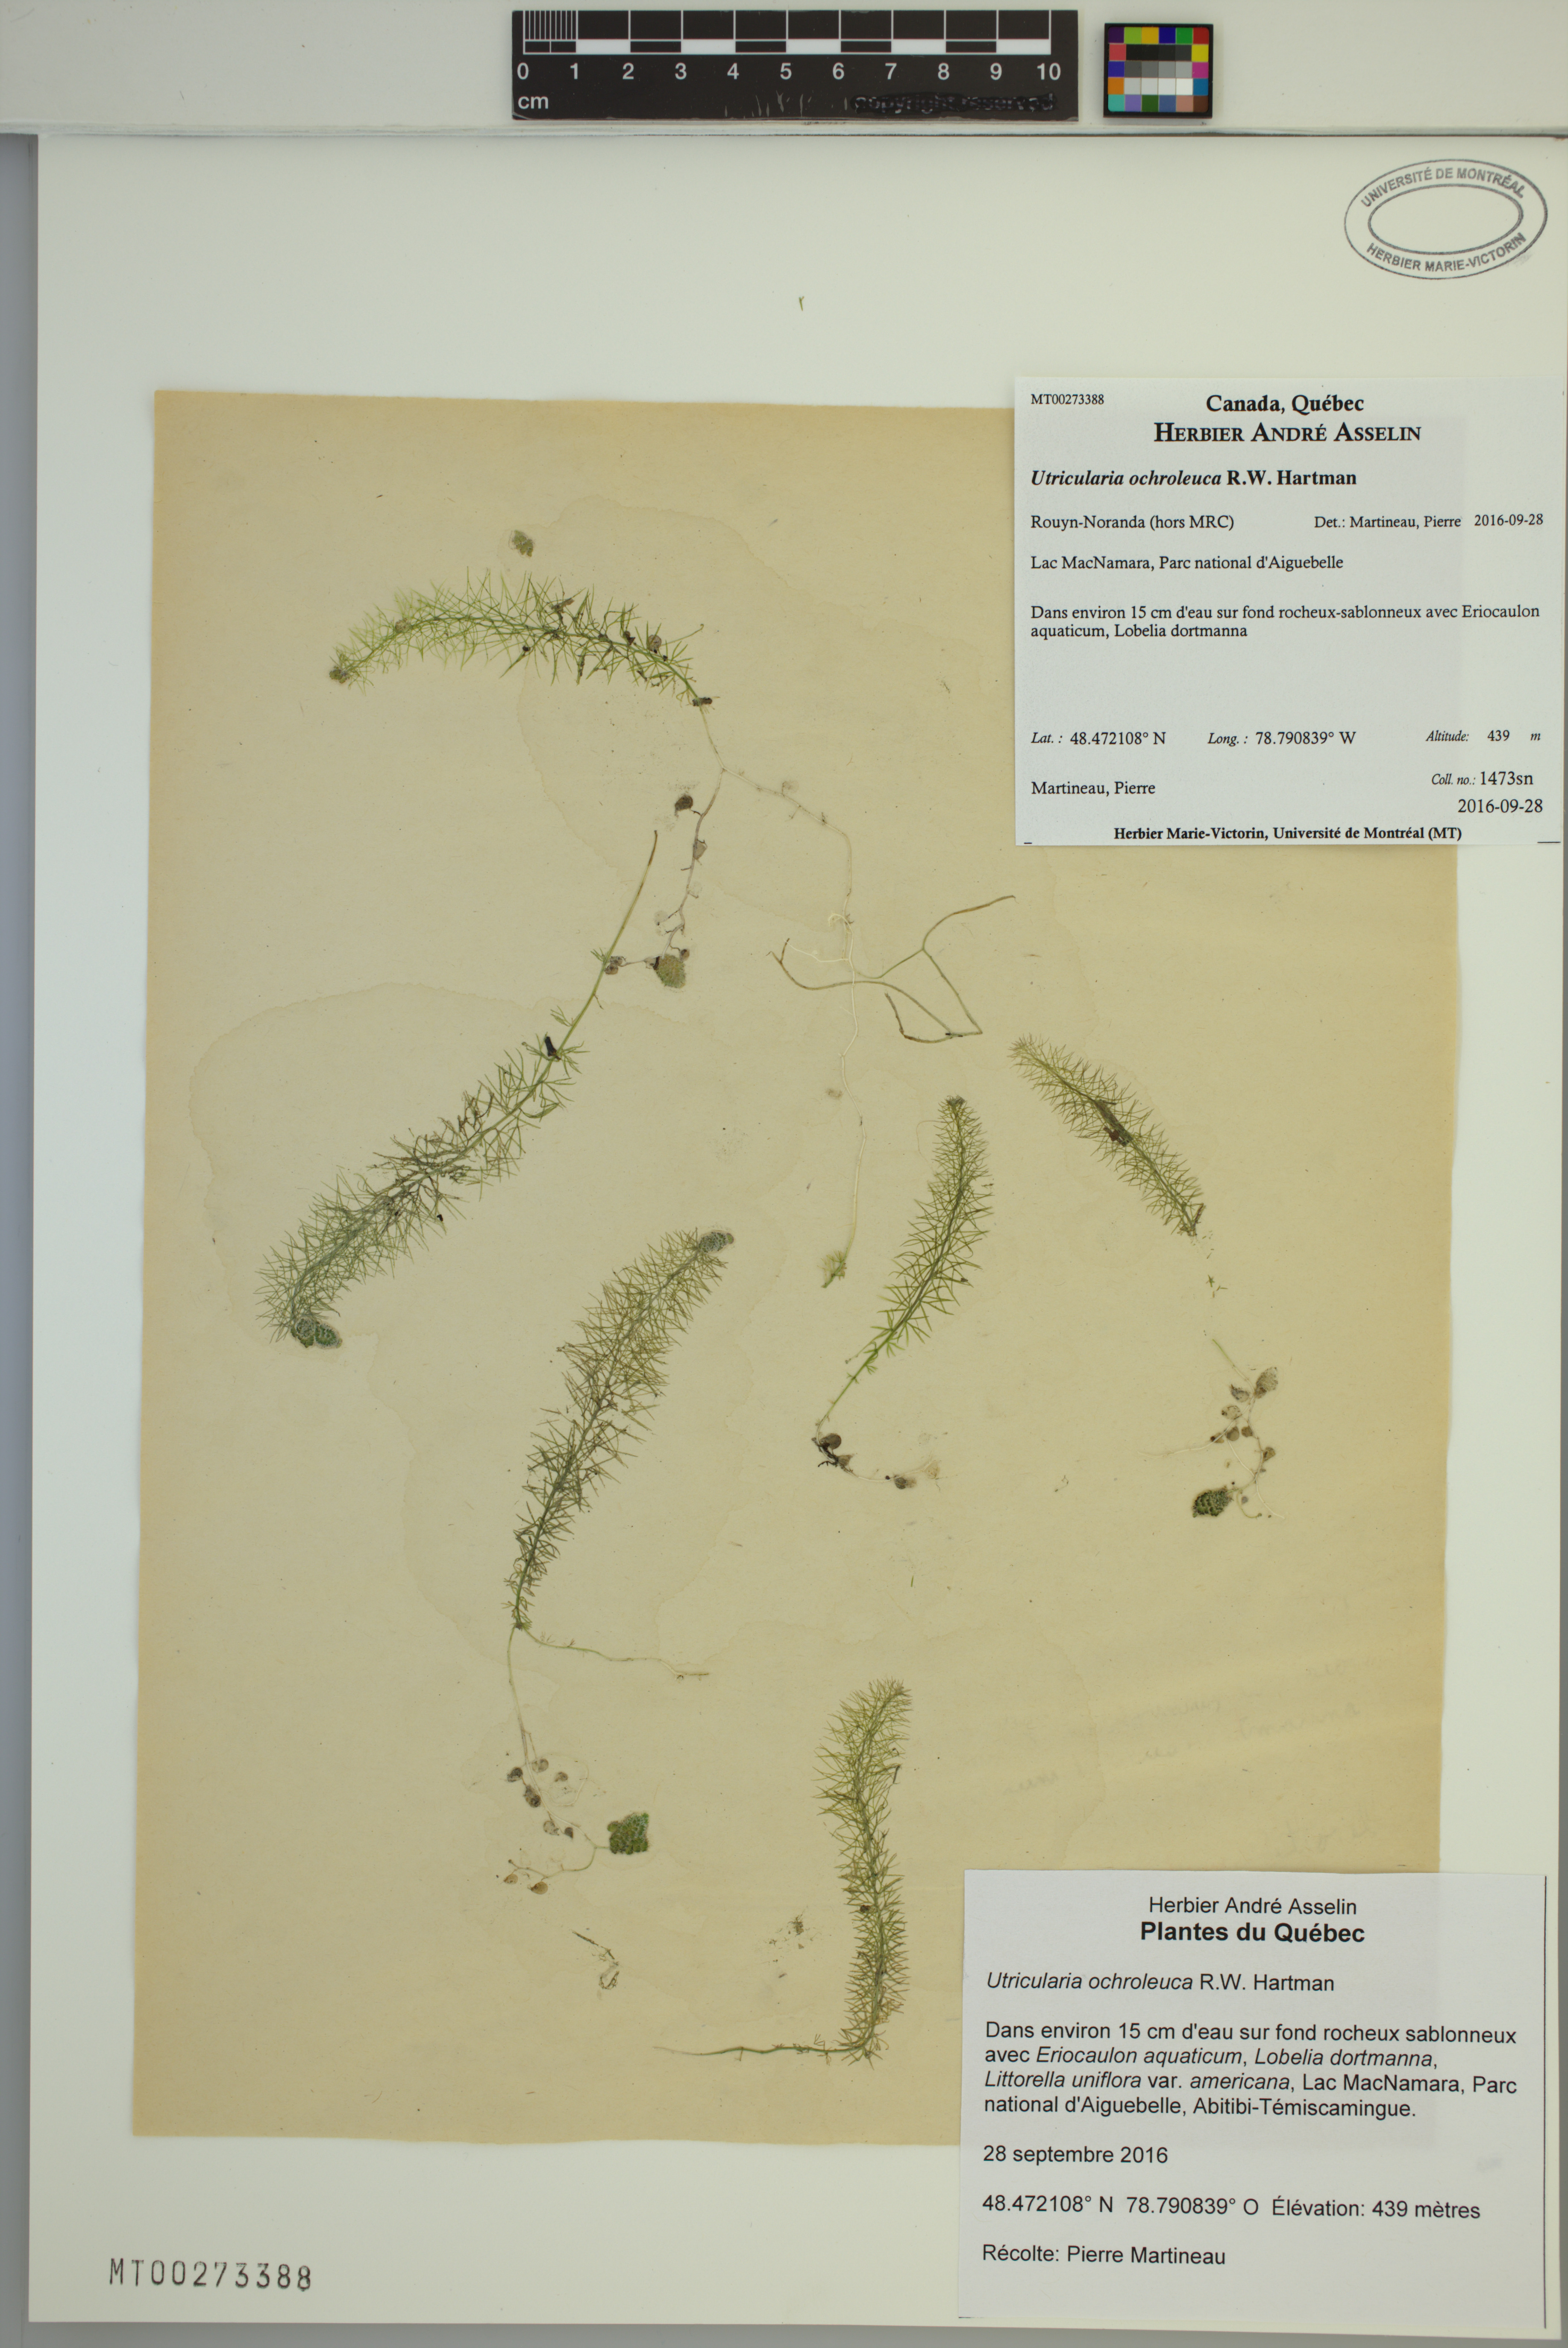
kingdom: Plantae
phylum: Tracheophyta
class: Magnoliopsida
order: Lamiales
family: Lentibulariaceae
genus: Utricularia
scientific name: Utricularia ochroleuca
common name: Pale bladderwort
